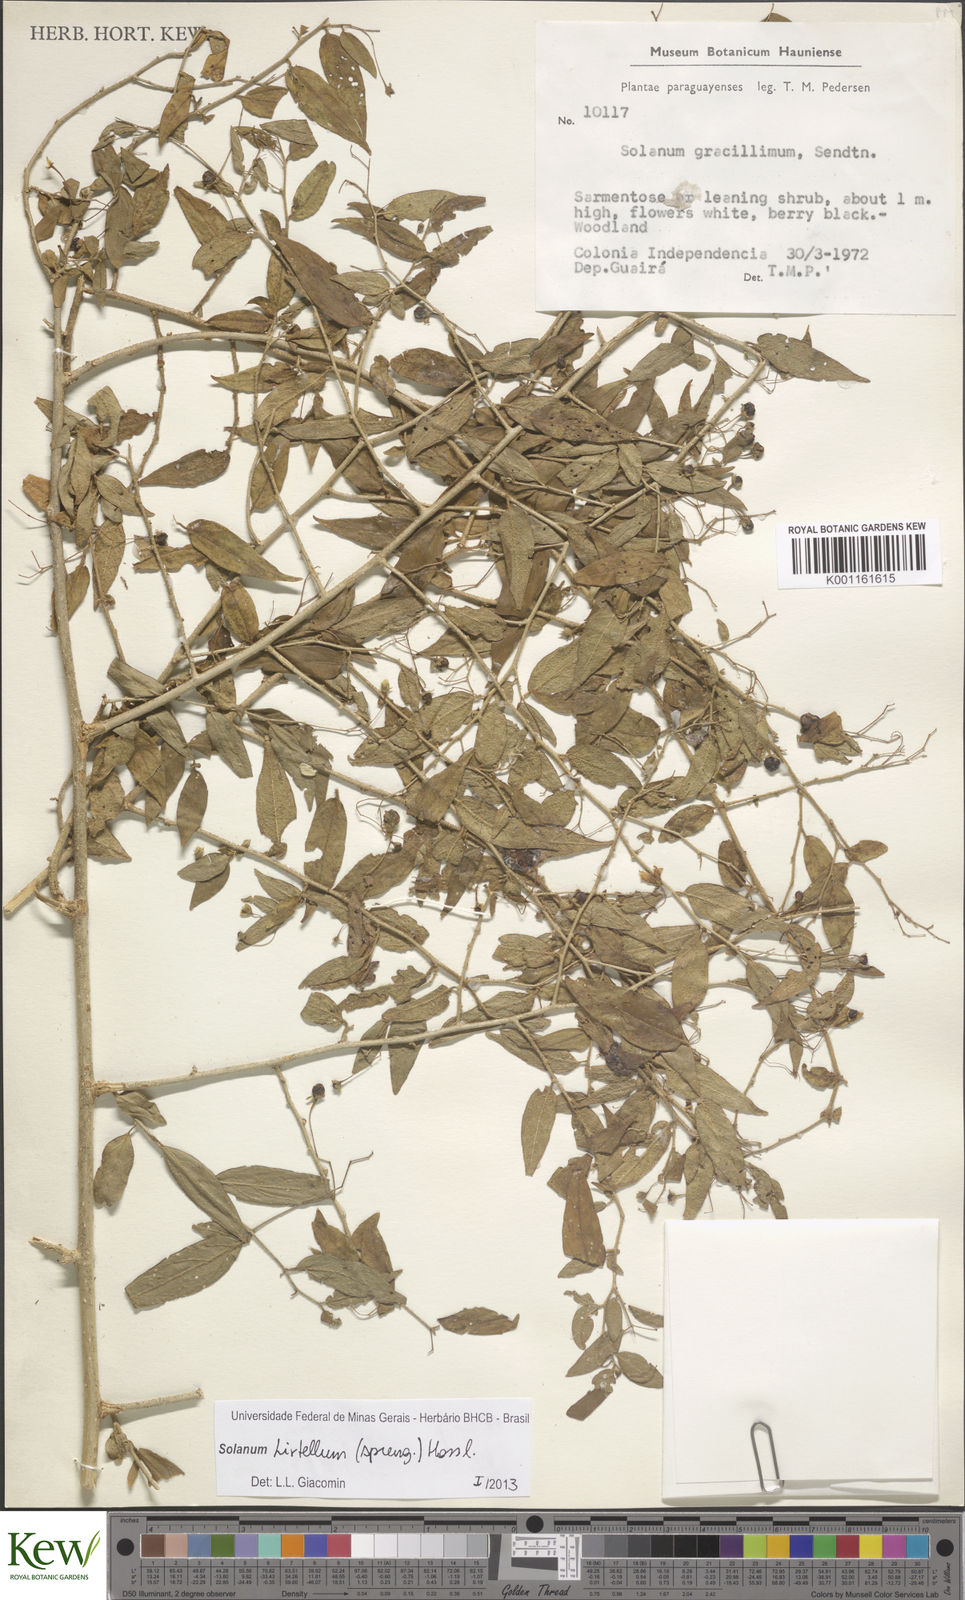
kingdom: Plantae
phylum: Tracheophyta
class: Magnoliopsida
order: Solanales
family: Solanaceae
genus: Solanum
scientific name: Solanum hirtellum
